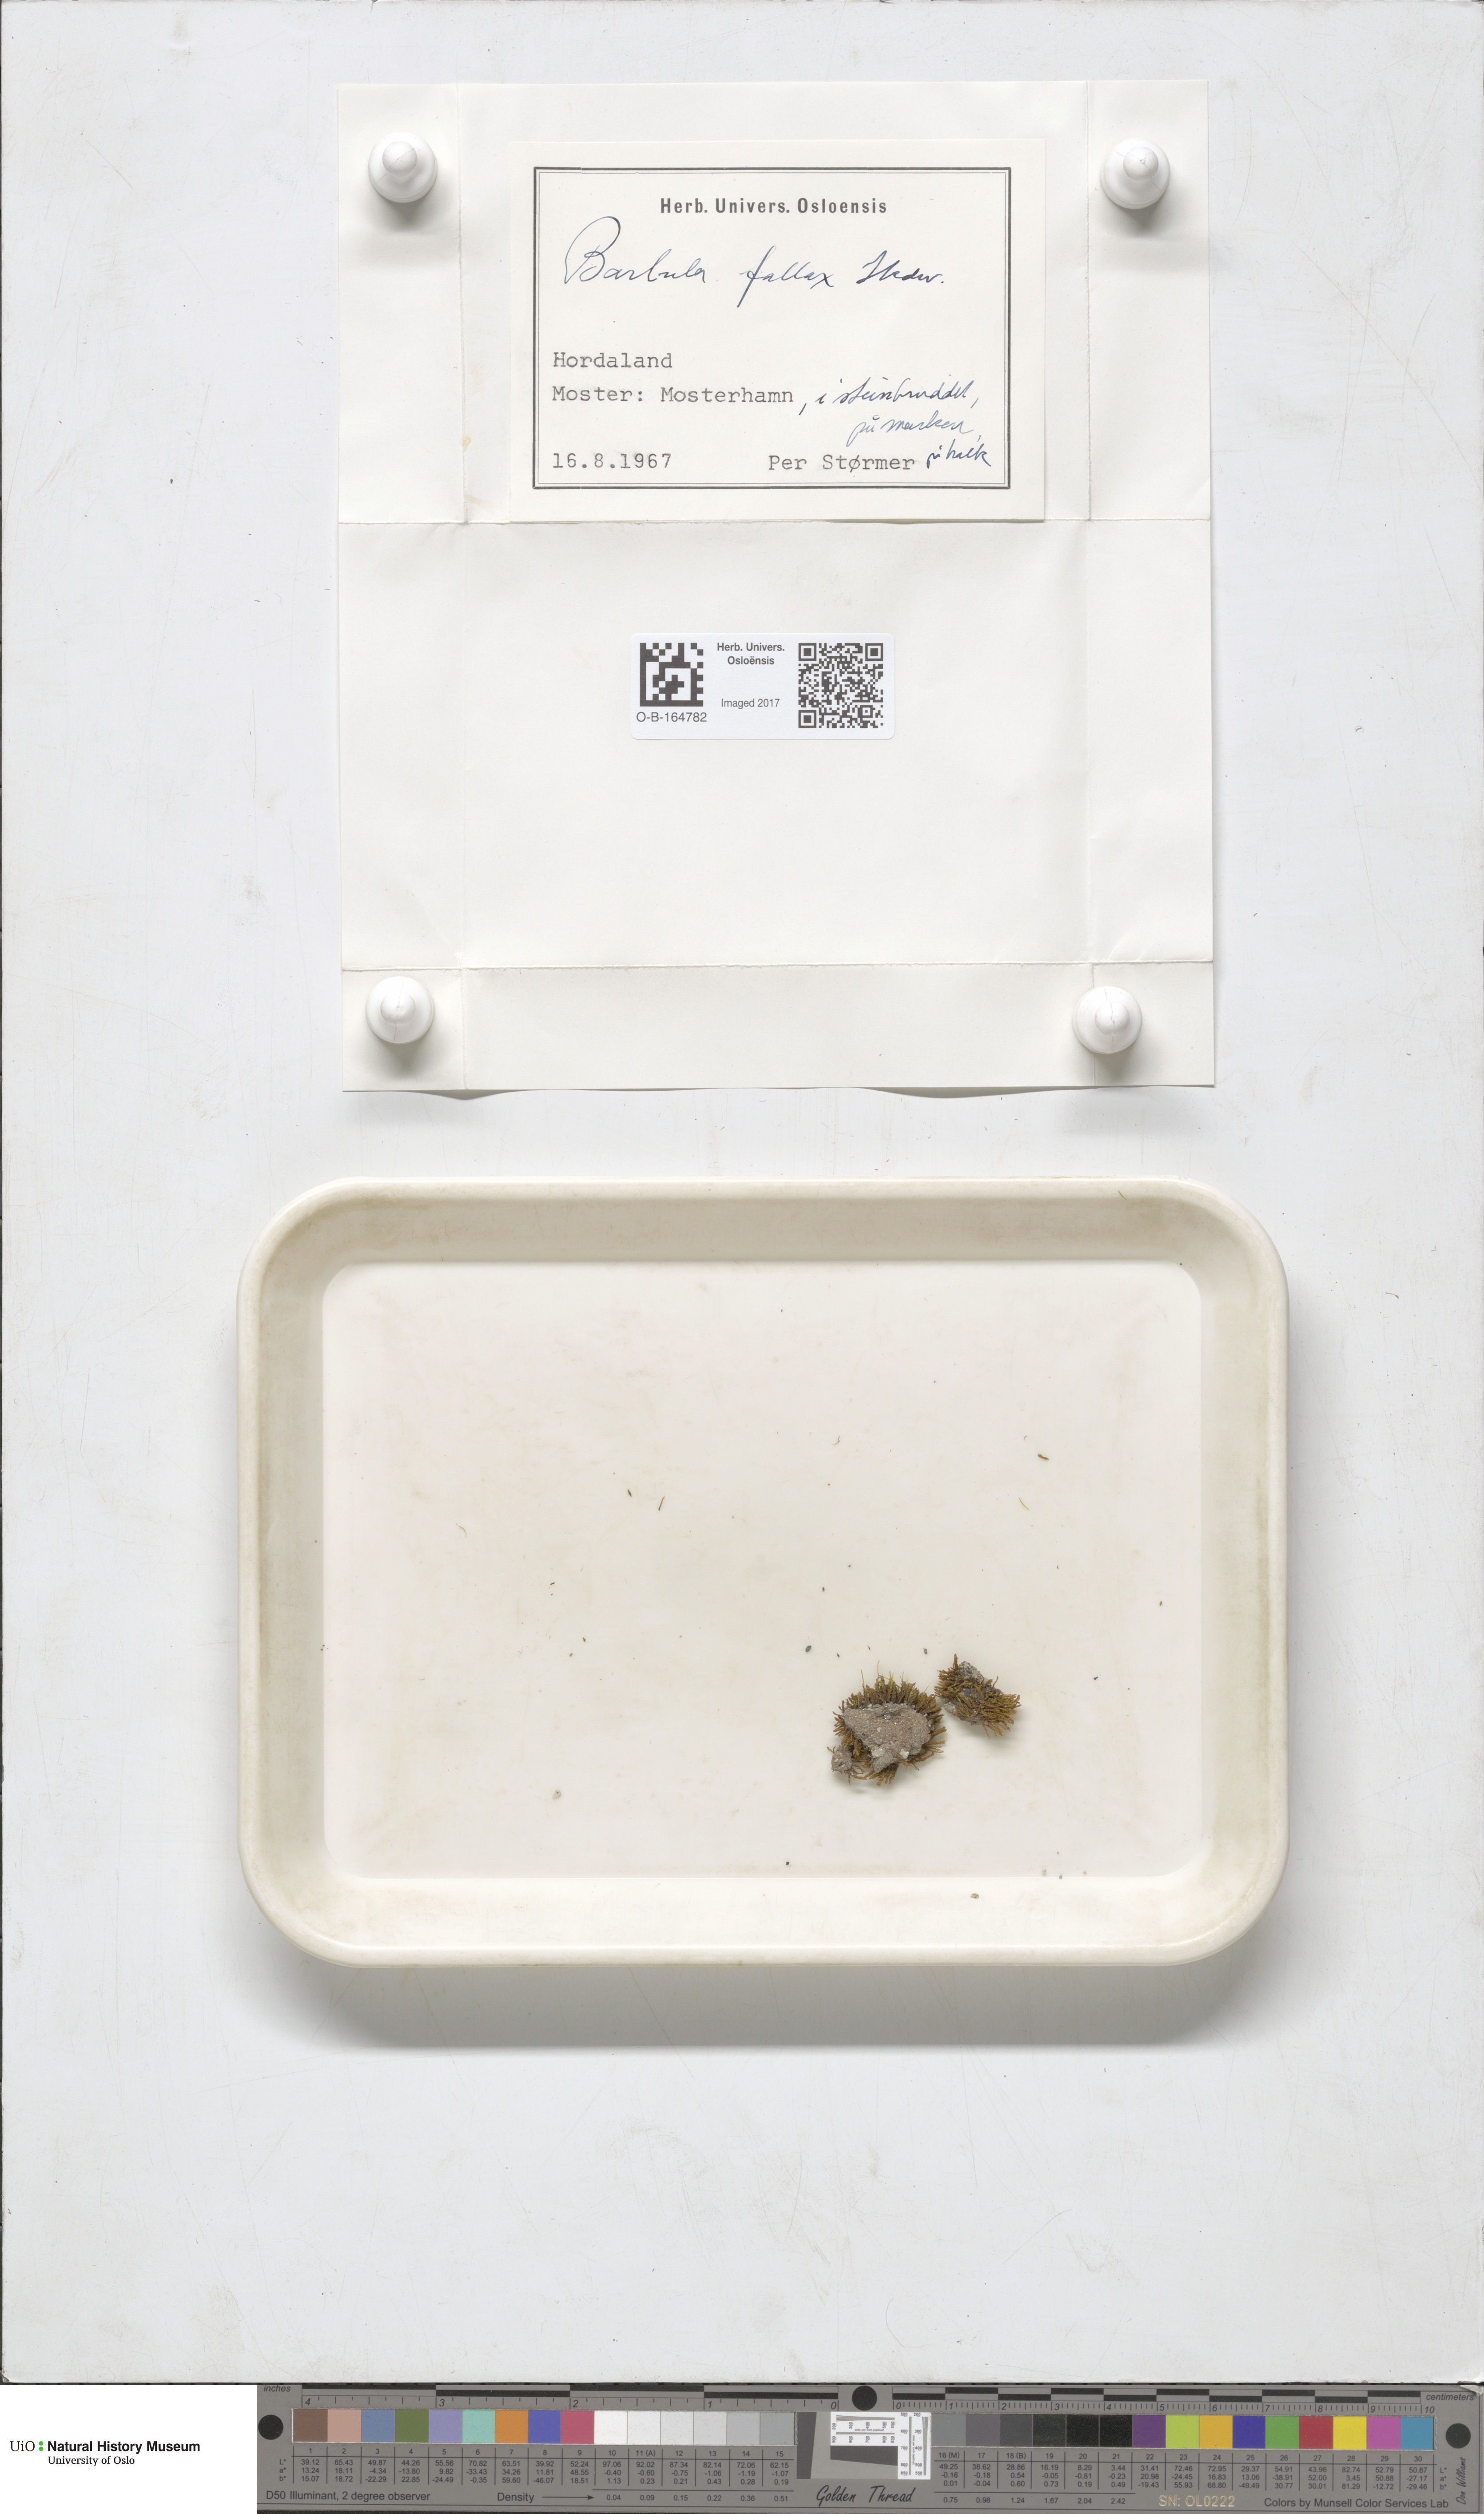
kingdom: Plantae
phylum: Bryophyta
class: Bryopsida
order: Pottiales
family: Pottiaceae
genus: Geheebia
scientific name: Geheebia fallax
